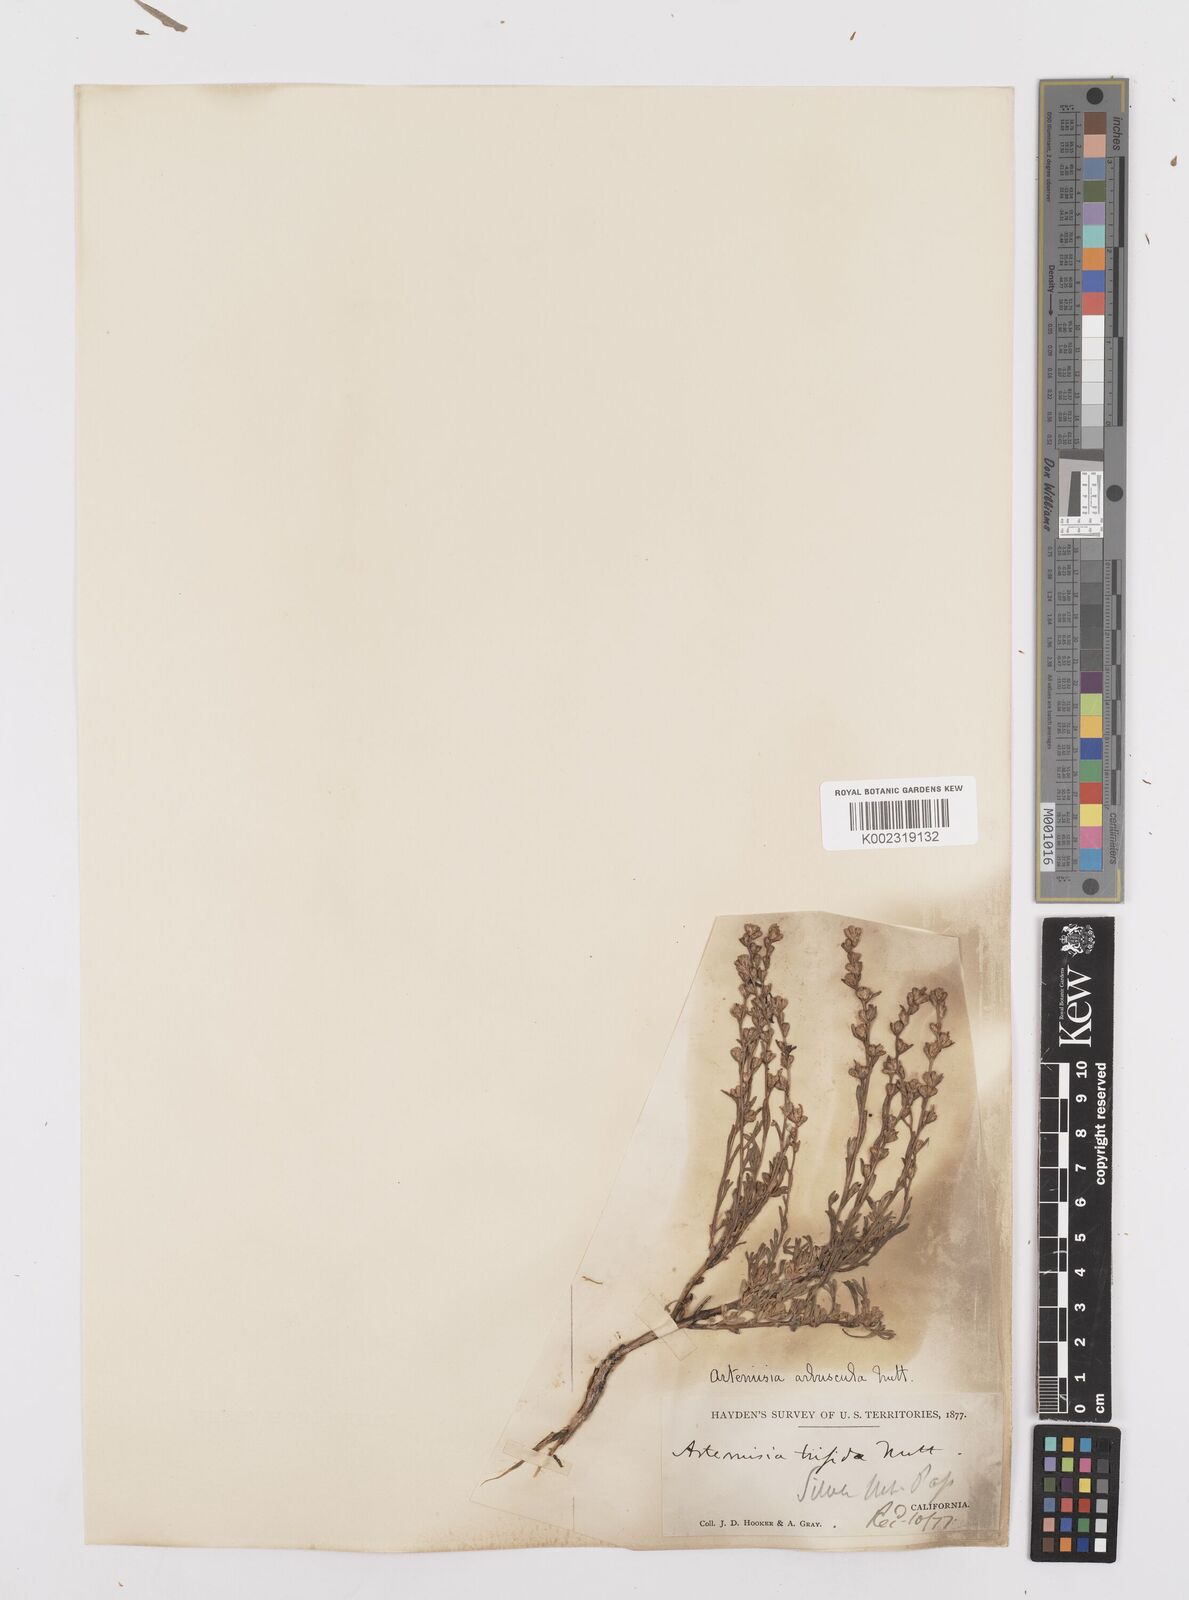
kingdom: Plantae
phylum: Tracheophyta
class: Magnoliopsida
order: Asterales
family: Asteraceae
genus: Artemisia
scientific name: Artemisia arbuscula
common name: Sagebrush
